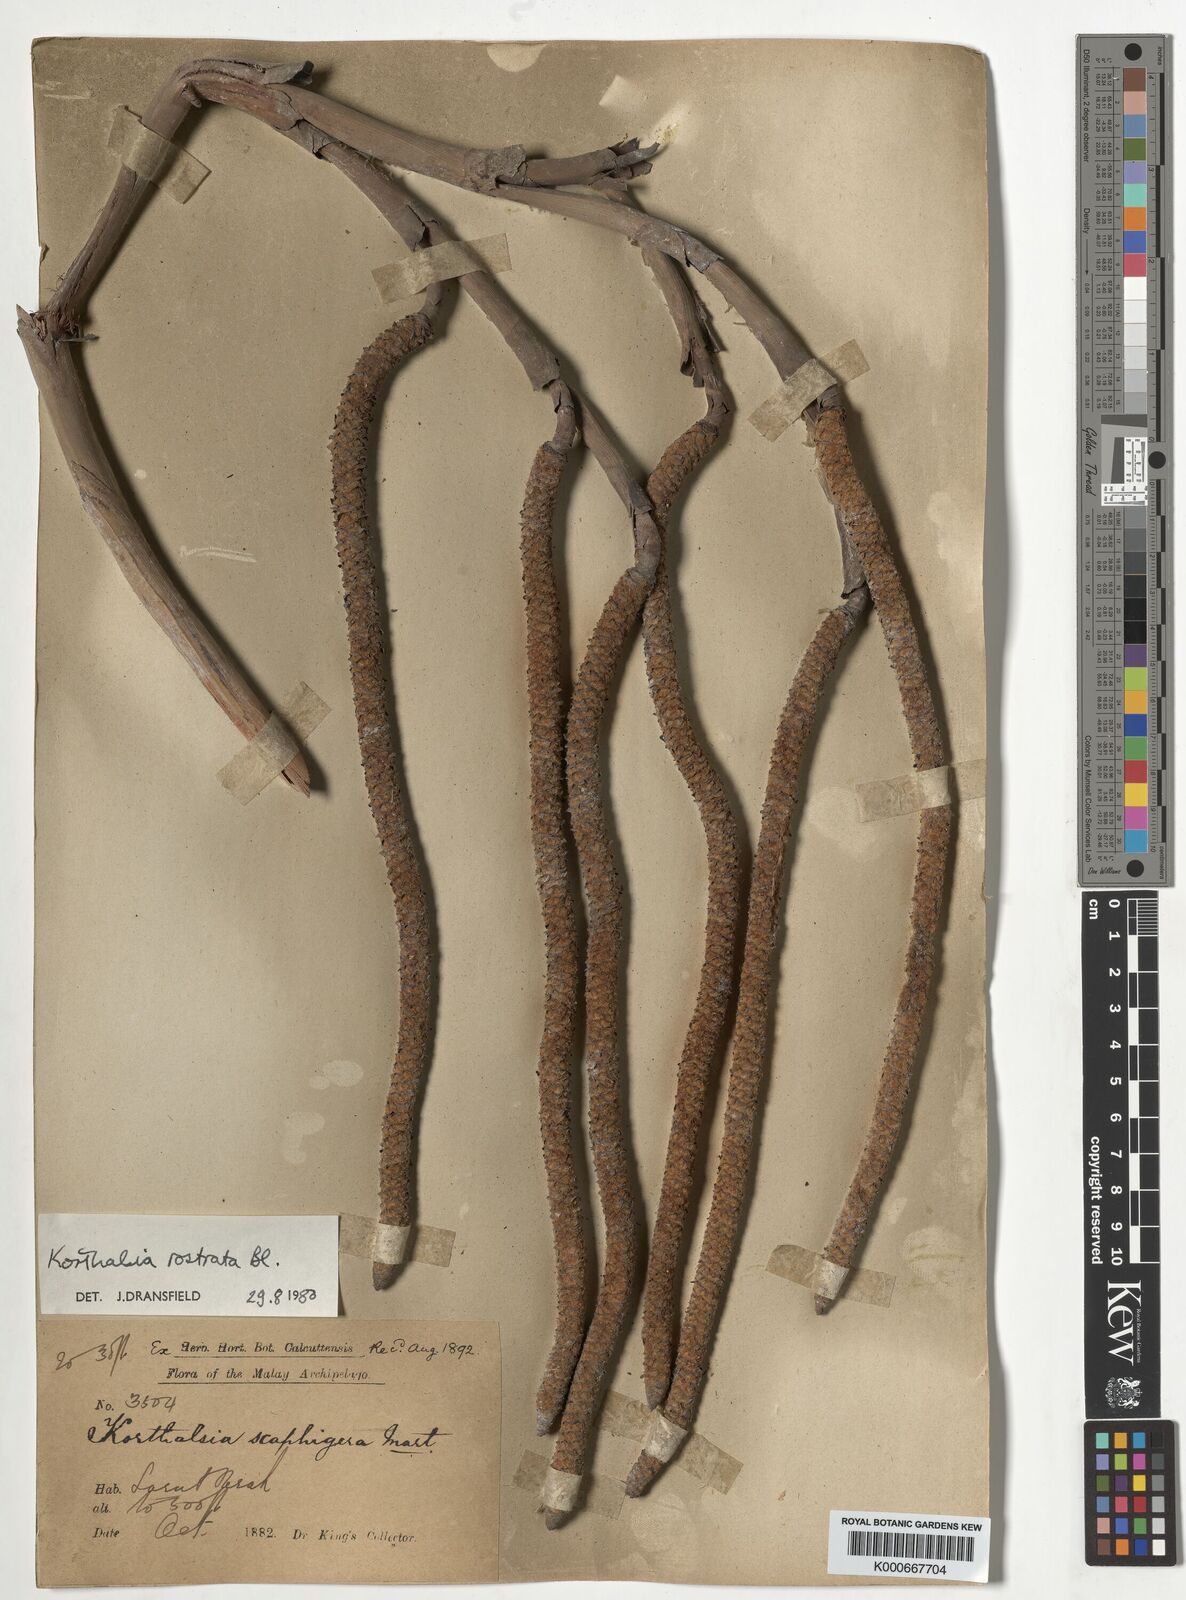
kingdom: Plantae
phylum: Tracheophyta
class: Liliopsida
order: Arecales
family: Arecaceae
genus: Korthalsia
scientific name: Korthalsia rostrata
